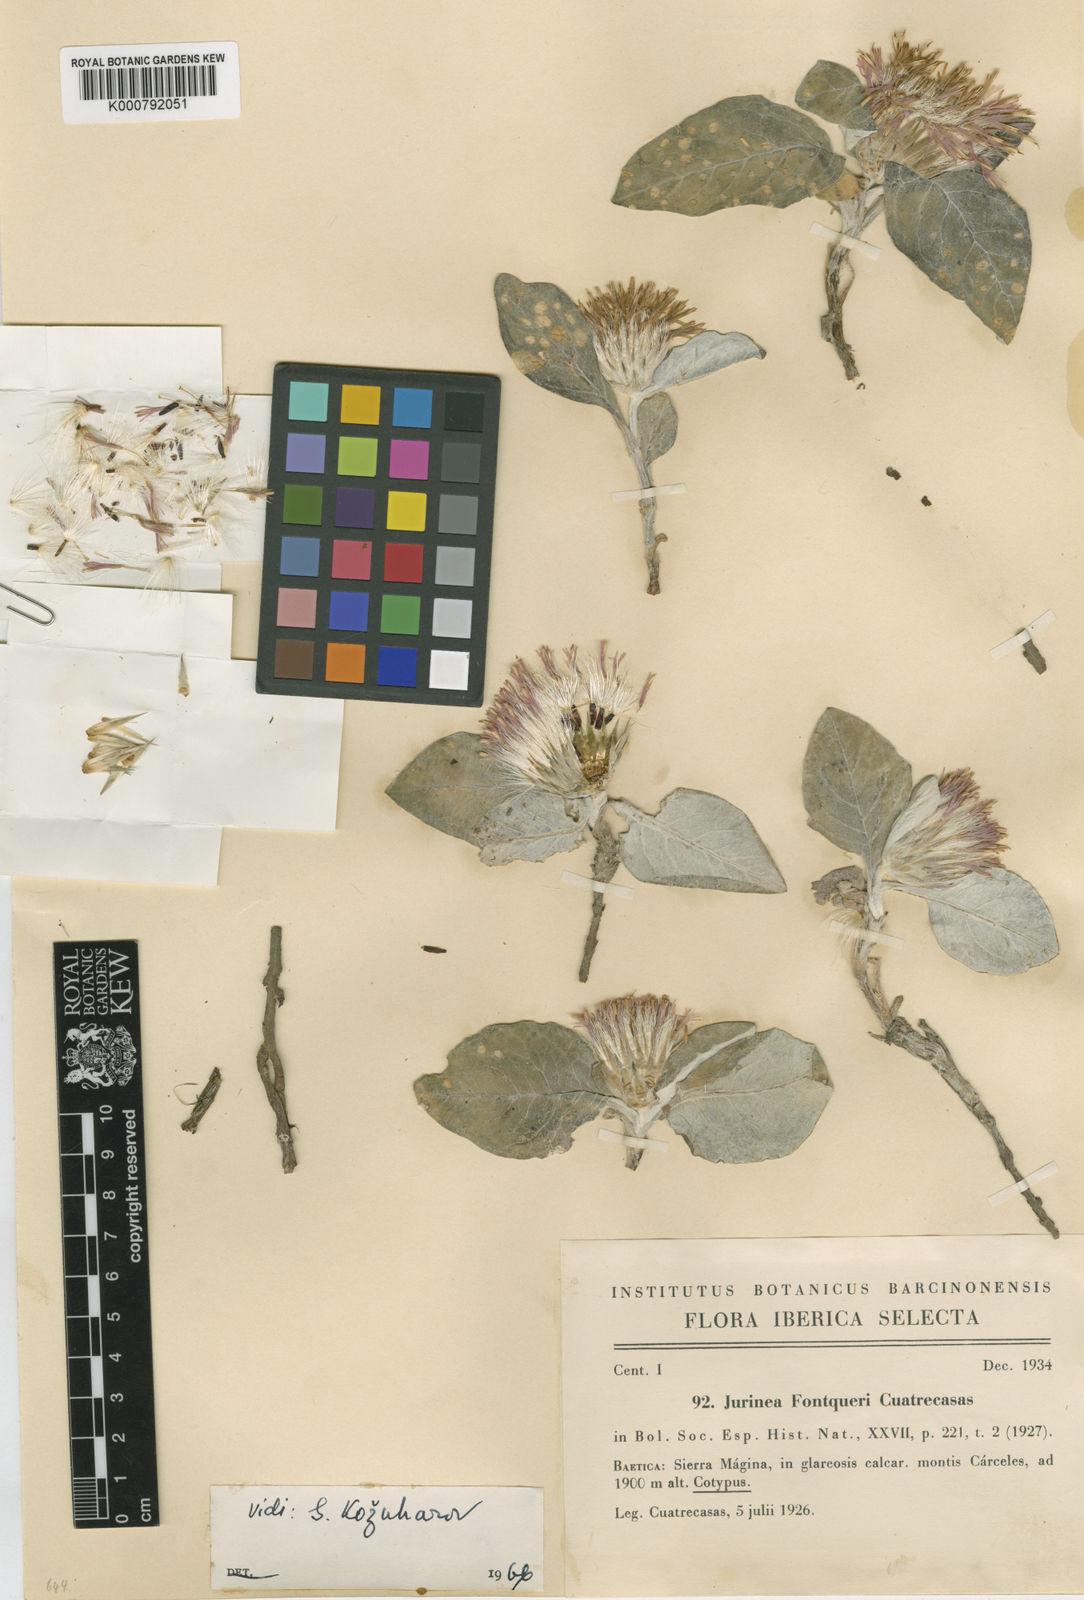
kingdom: Plantae
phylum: Tracheophyta
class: Magnoliopsida
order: Asterales
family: Asteraceae
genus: Jurinea
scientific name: Jurinea fontqueri
